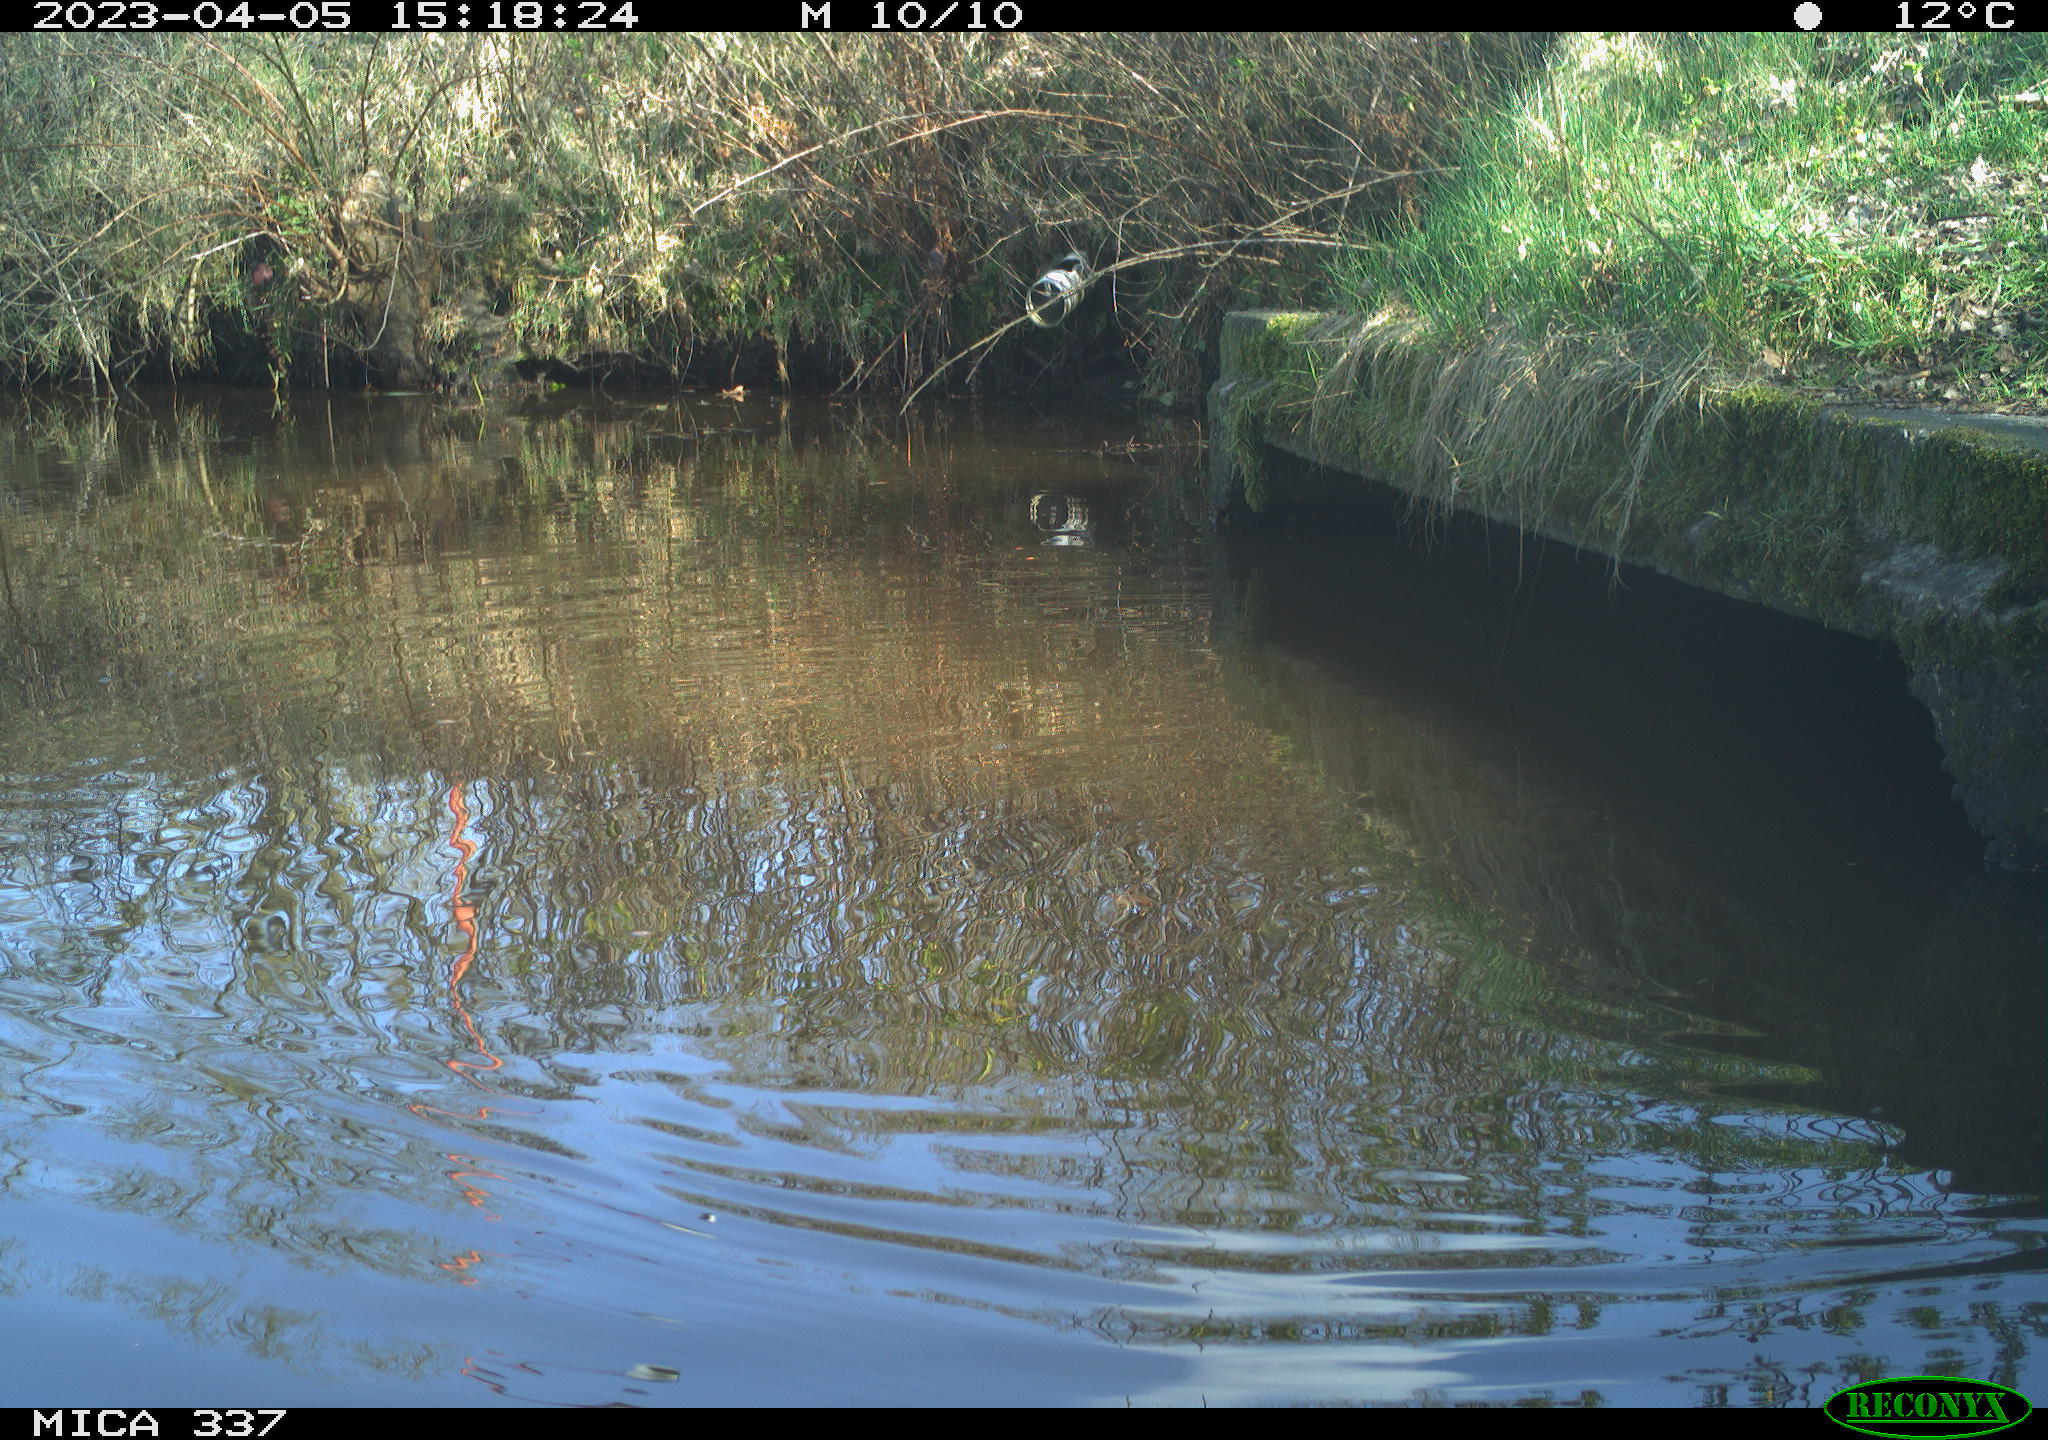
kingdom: Animalia
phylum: Chordata
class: Aves
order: Gruiformes
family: Rallidae
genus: Gallinula
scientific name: Gallinula chloropus
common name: Common moorhen
